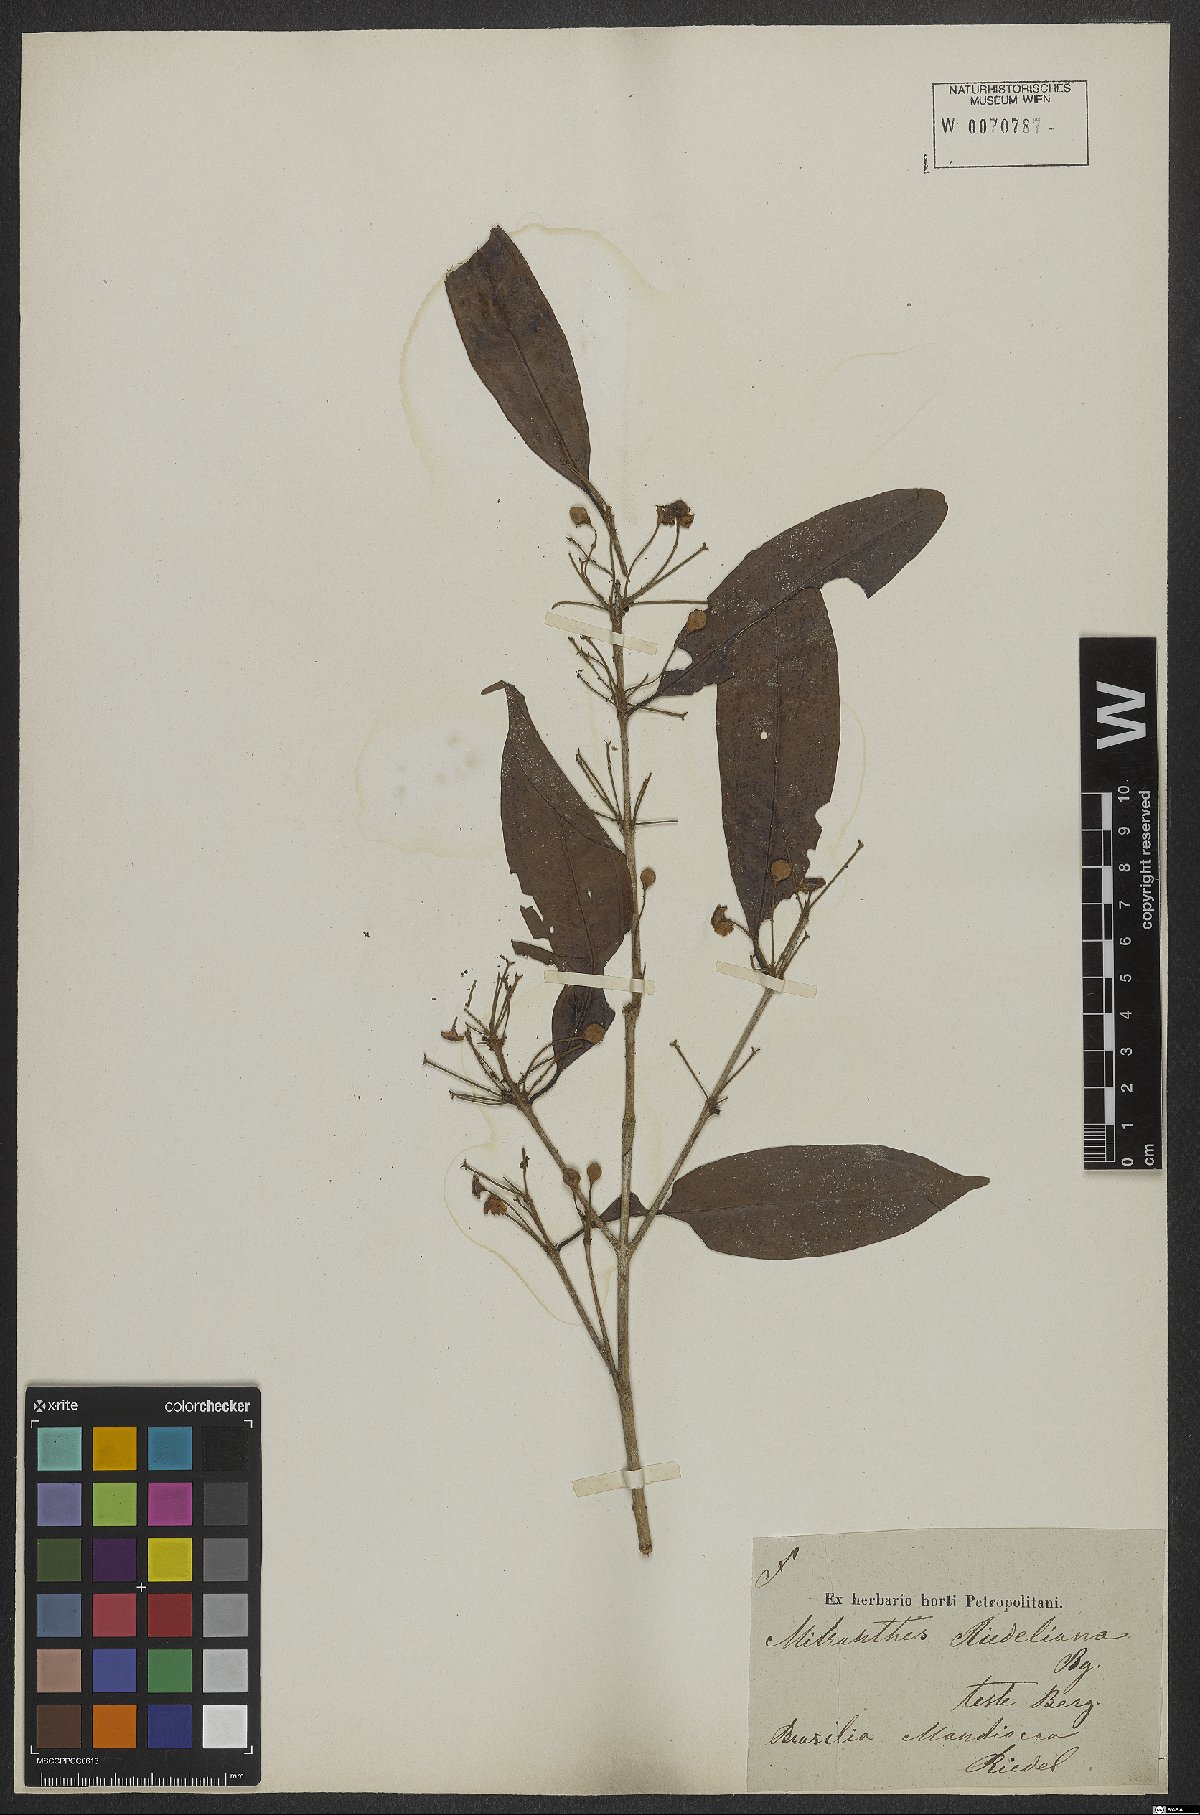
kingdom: Plantae
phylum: Tracheophyta
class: Magnoliopsida
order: Myrtales
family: Myrtaceae
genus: Eugenia
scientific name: Eugenia neoriedeliana
